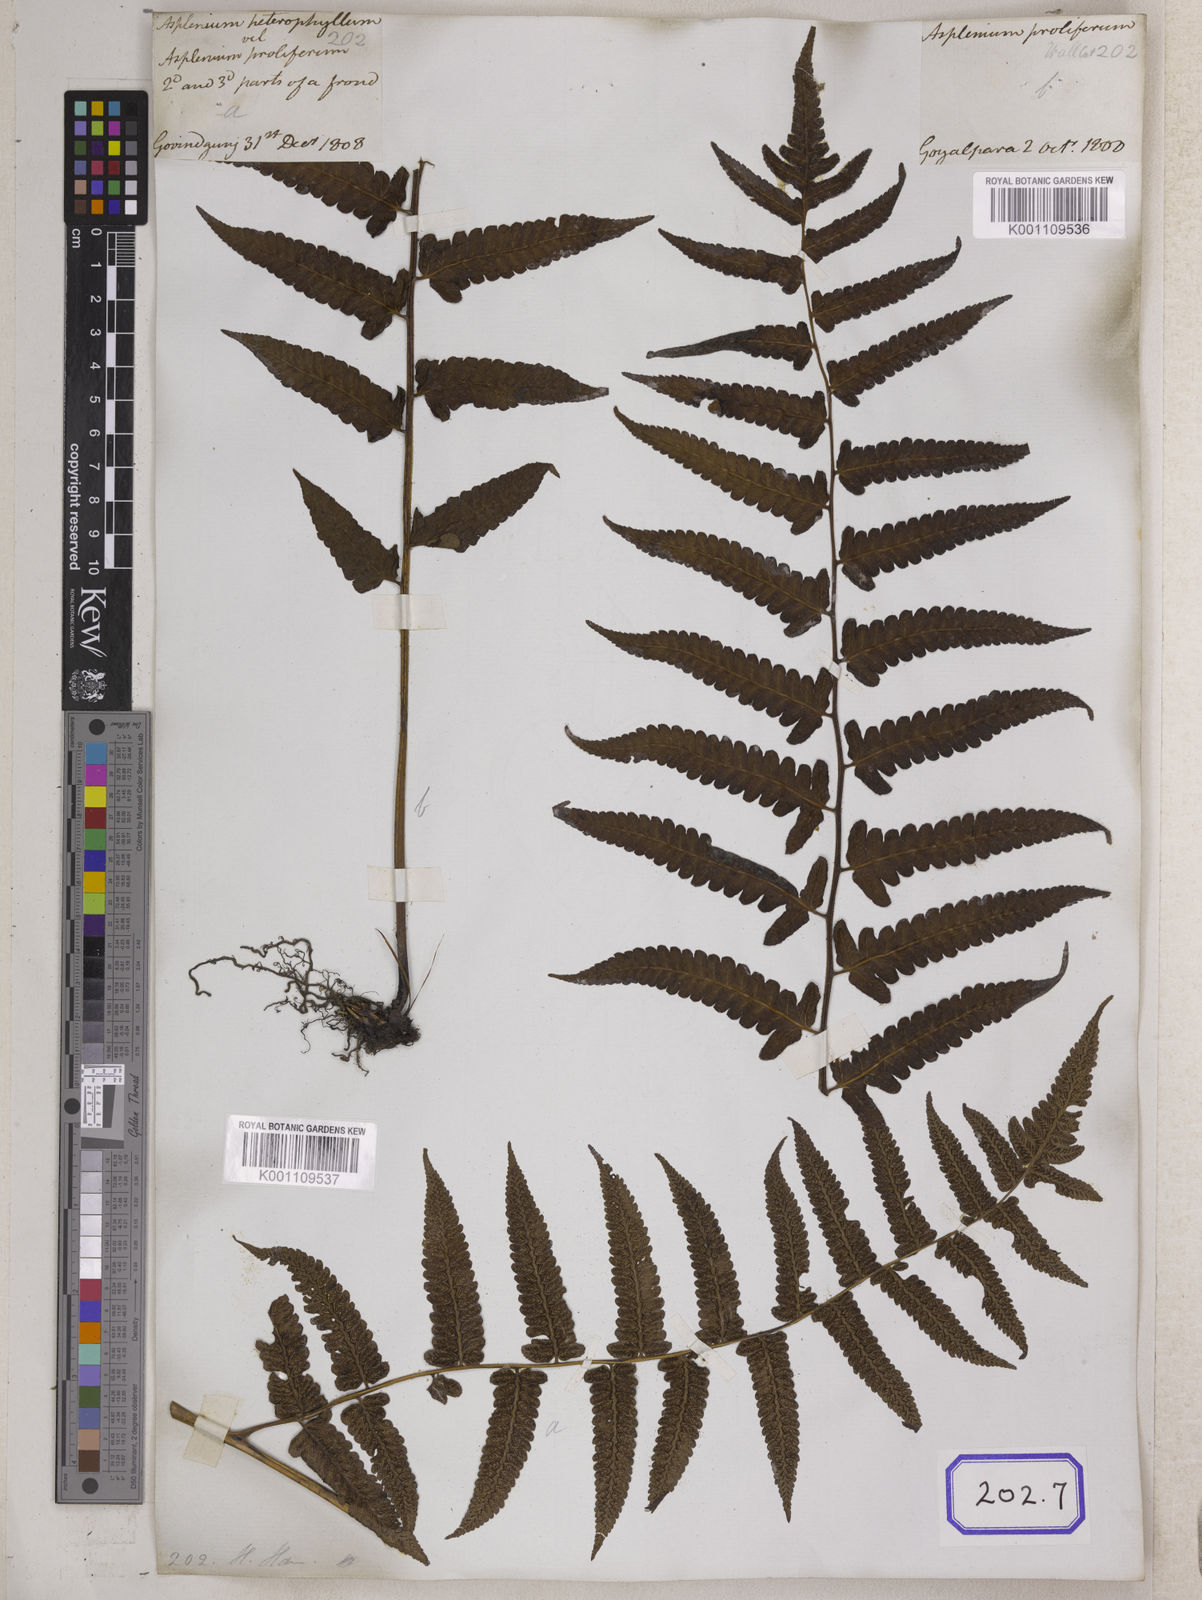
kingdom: Plantae
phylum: Tracheophyta
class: Polypodiopsida
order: Polypodiales
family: Aspleniaceae
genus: Asplenium
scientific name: Asplenium
